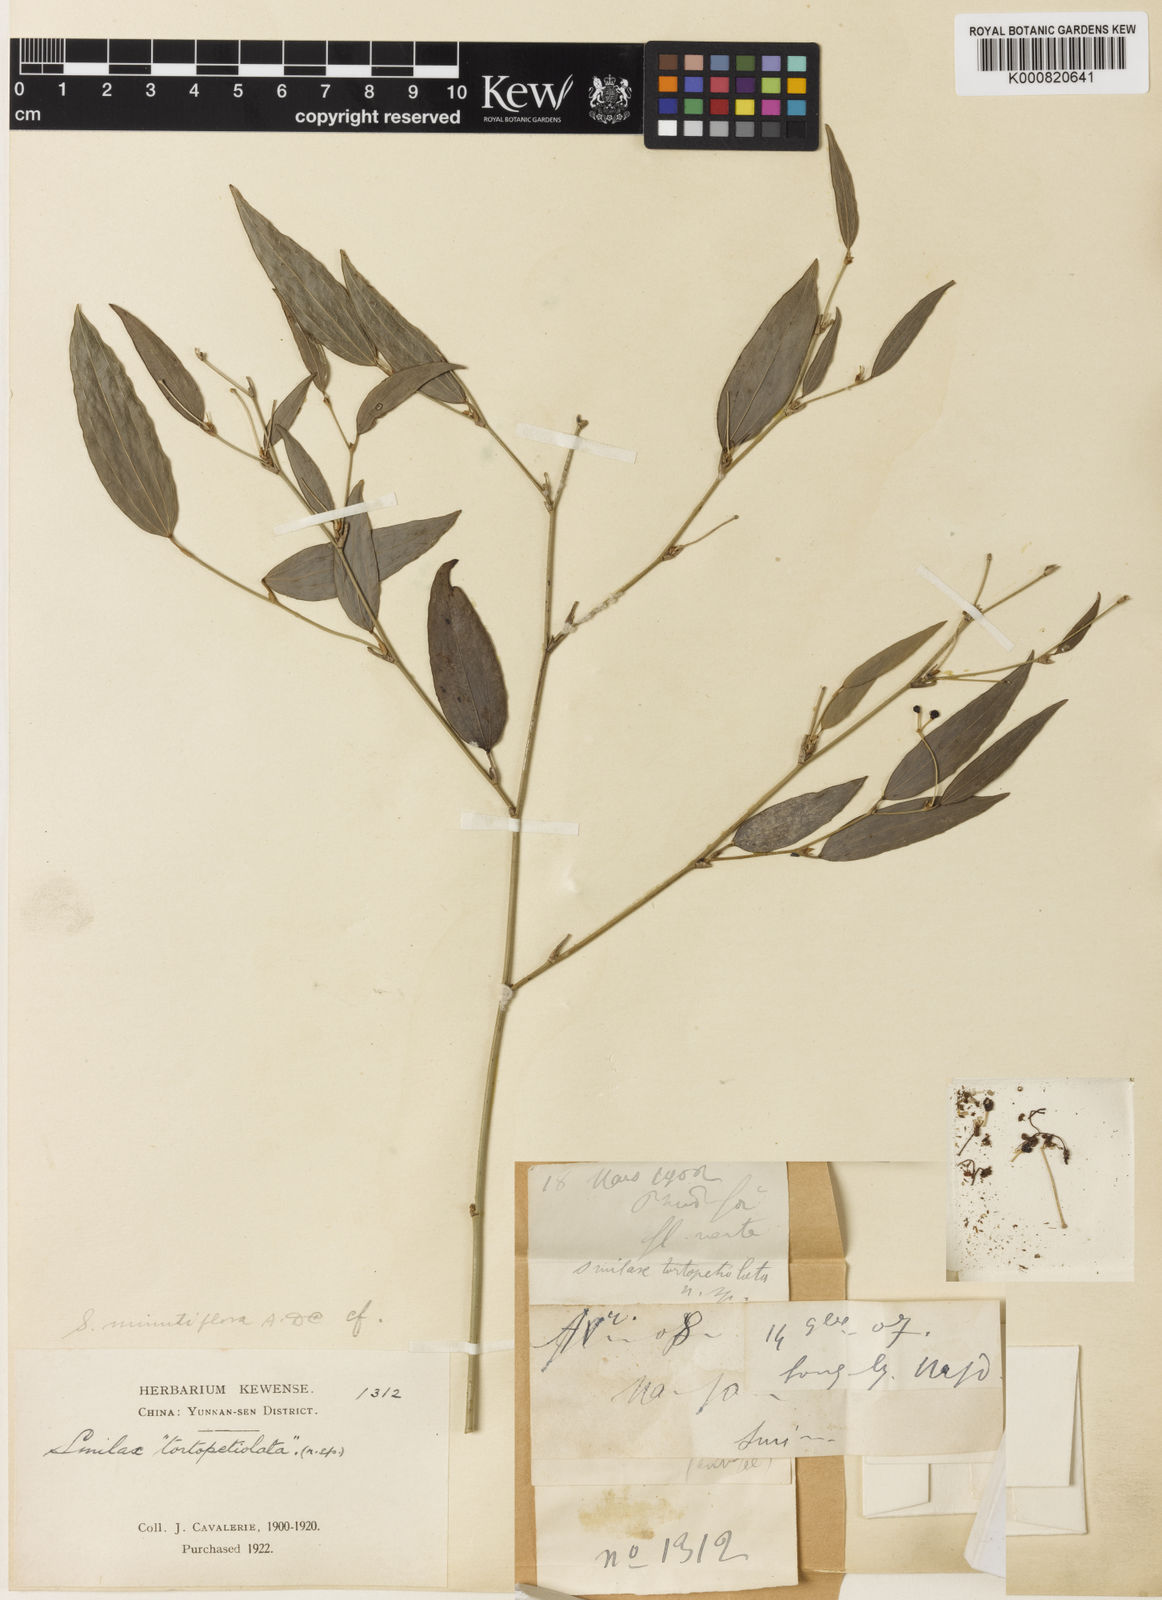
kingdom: Plantae
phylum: Tracheophyta
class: Liliopsida
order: Liliales
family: Smilacaceae
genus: Smilax
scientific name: Smilax
